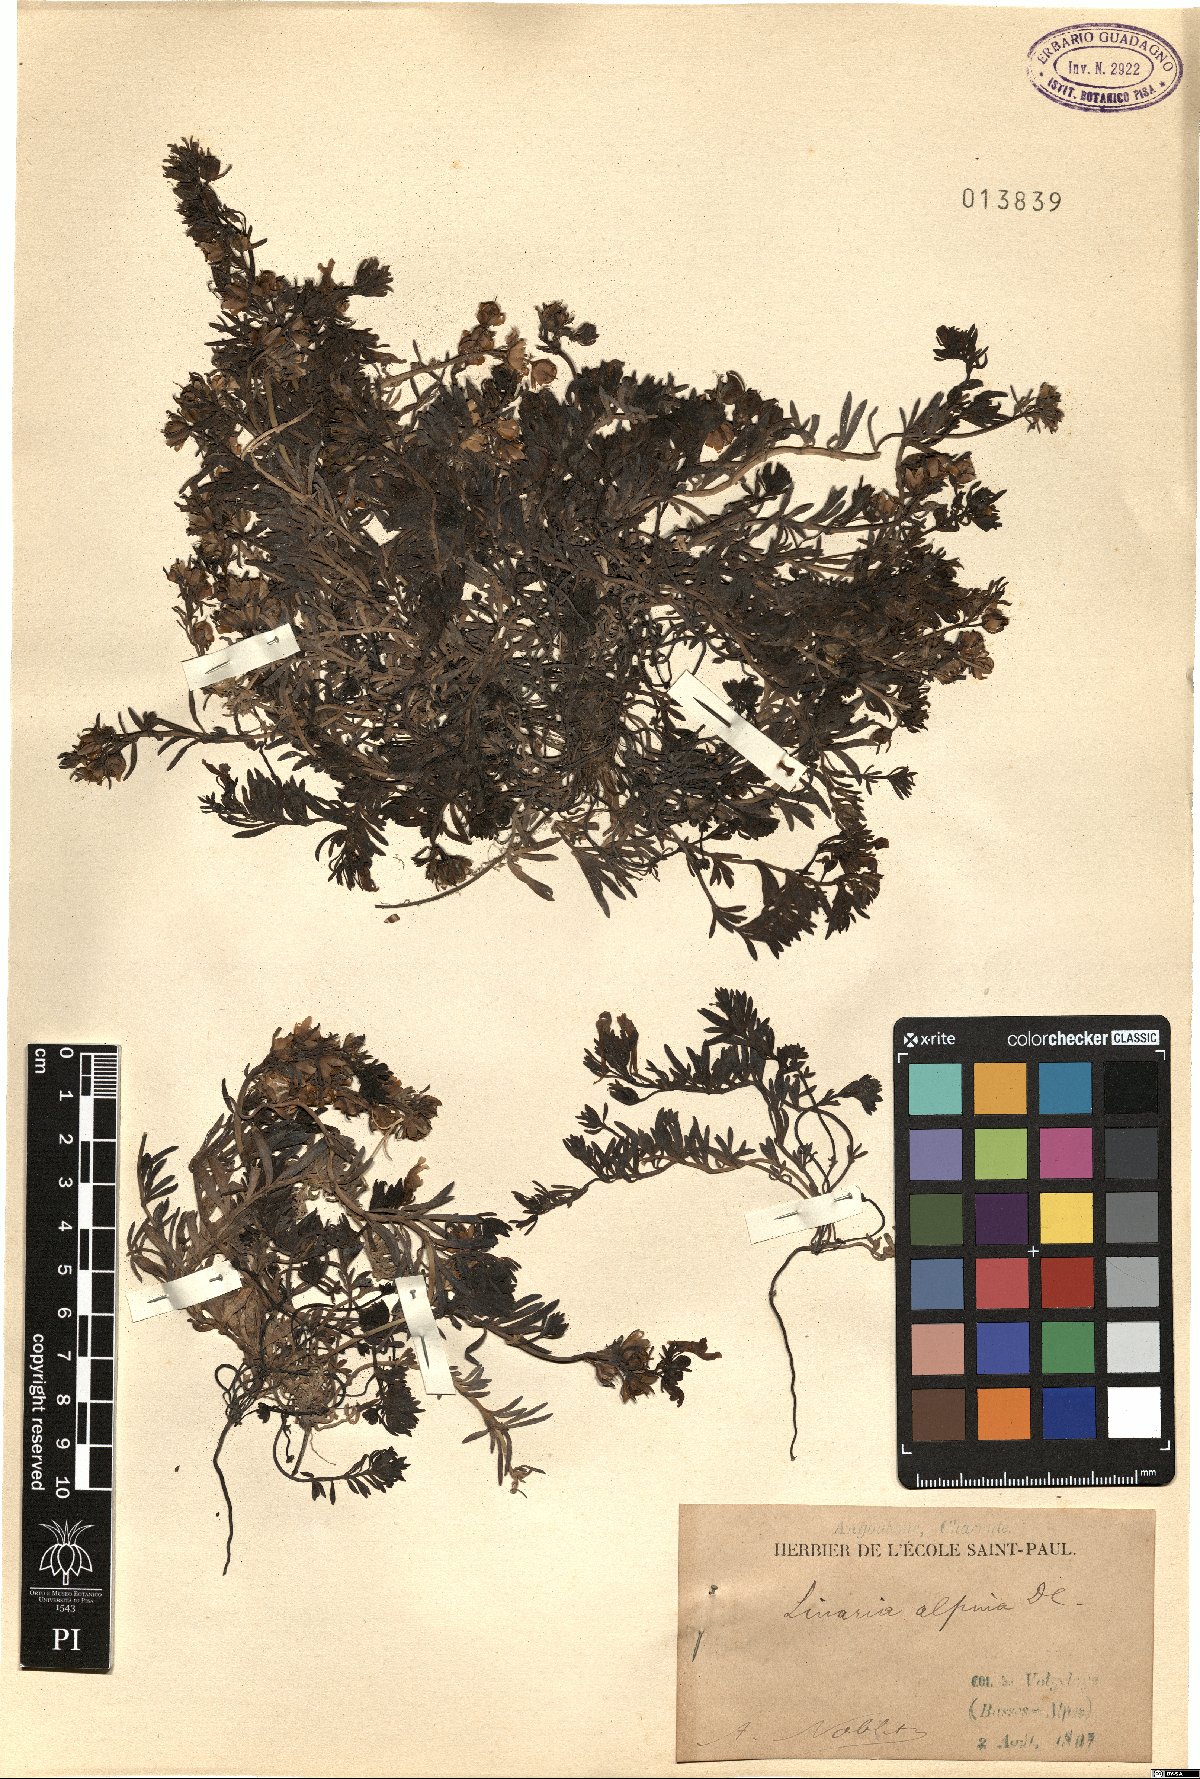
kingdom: Plantae
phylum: Tracheophyta
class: Magnoliopsida
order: Lamiales
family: Plantaginaceae
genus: Linaria
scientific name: Linaria alpina
